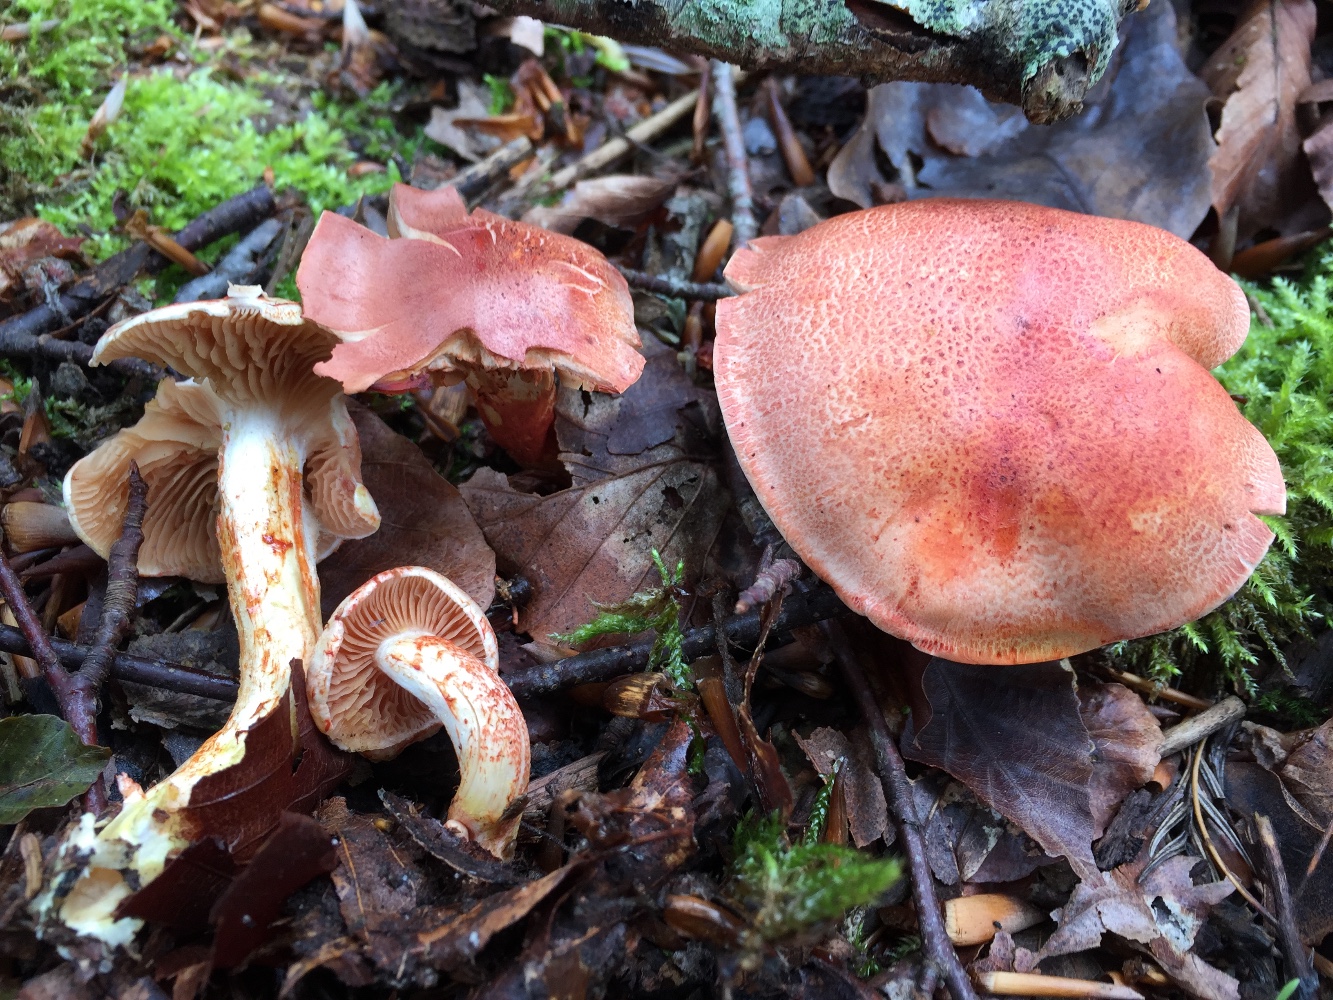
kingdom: Fungi
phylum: Basidiomycota
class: Agaricomycetes
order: Agaricales
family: Cortinariaceae
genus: Cortinarius
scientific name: Cortinarius bolaris
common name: cinnoberskællet slørhat
